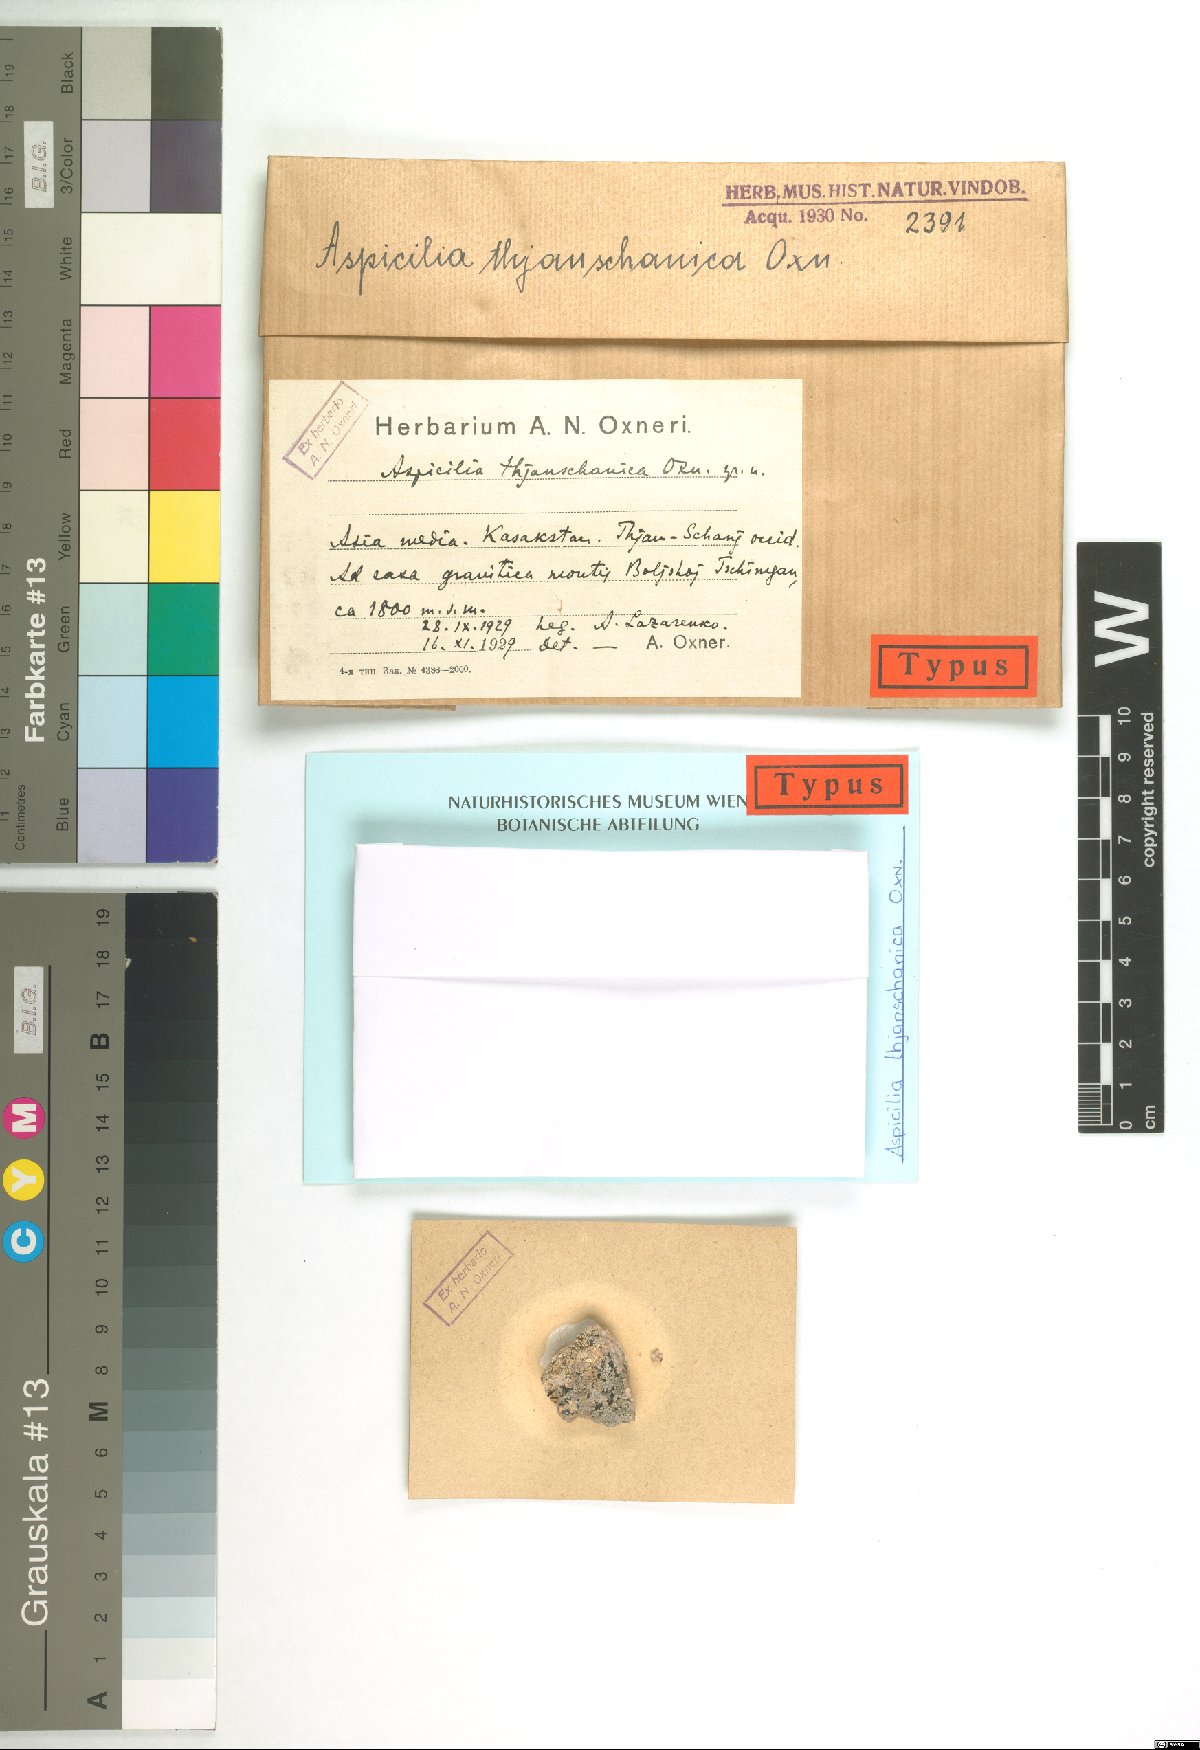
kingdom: Fungi
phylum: Ascomycota
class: Lecanoromycetes
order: Hymeneliales
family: Hymeneliaceae
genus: Aspicilia
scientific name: Aspicilia
